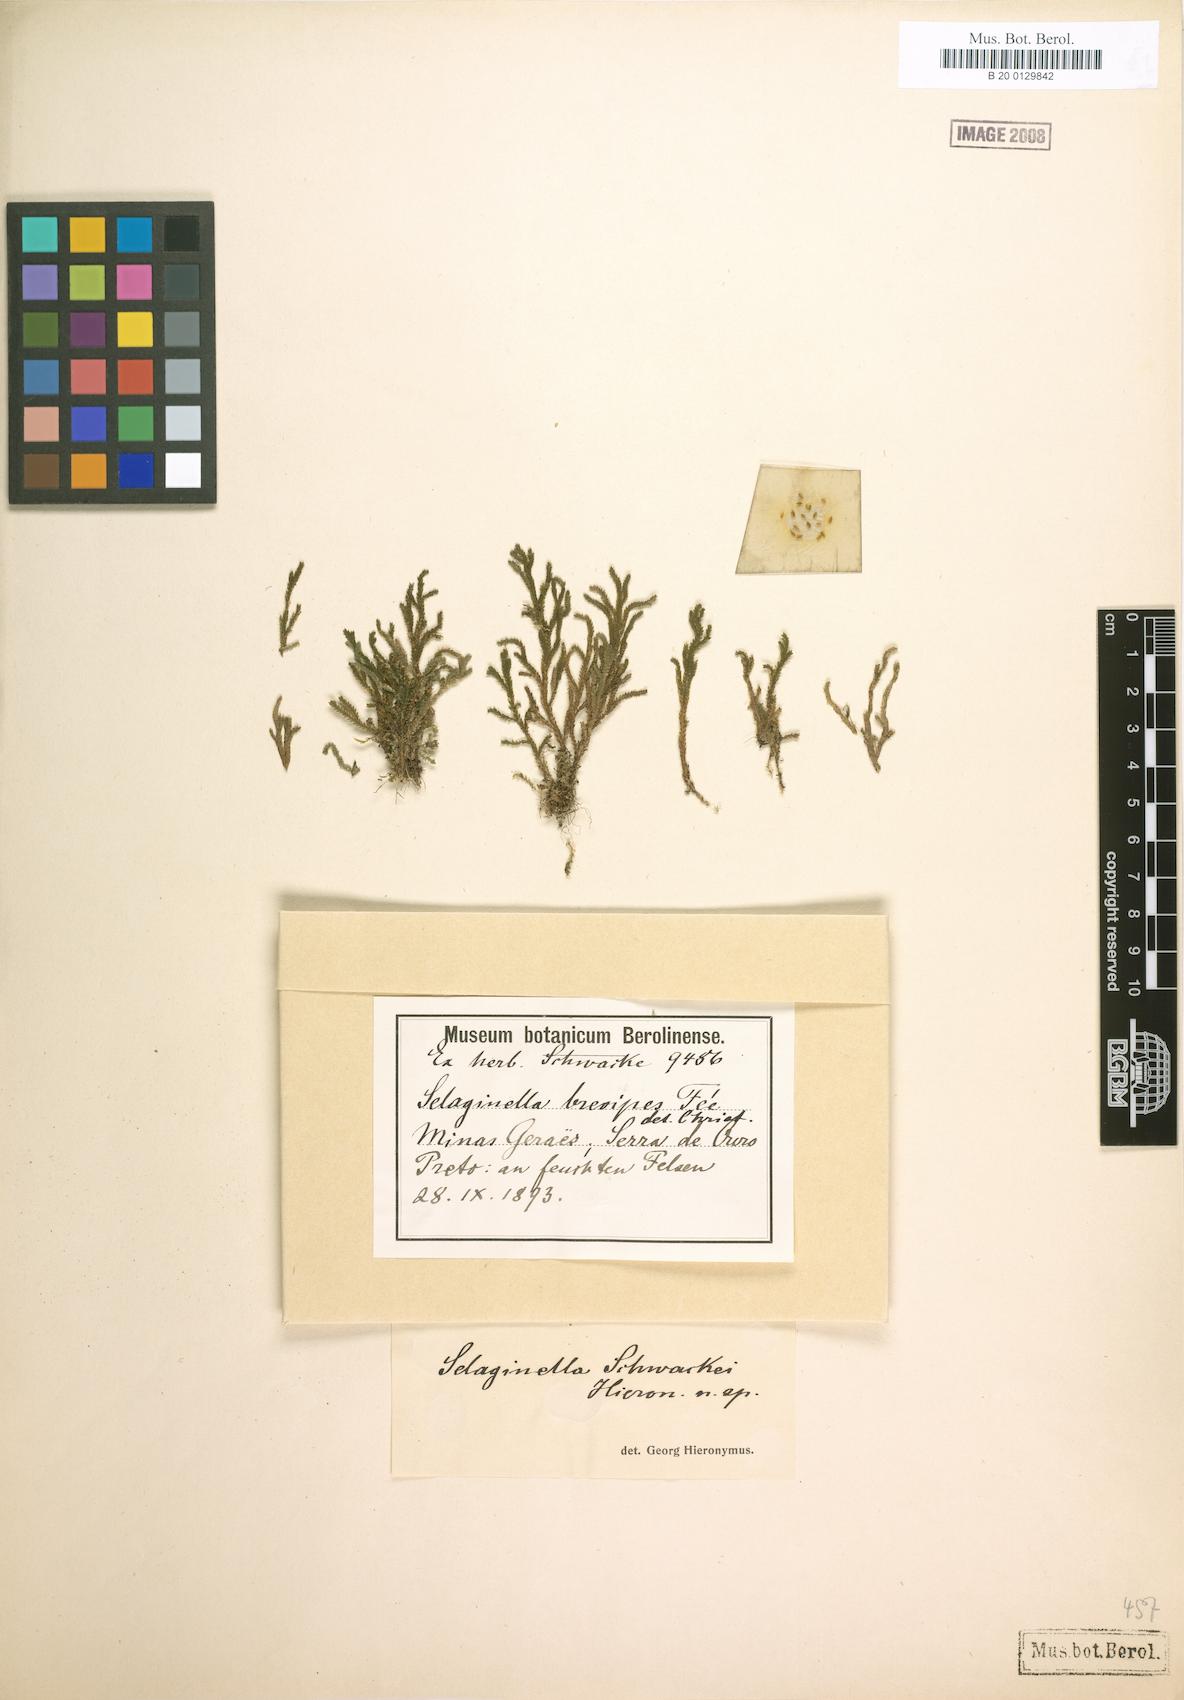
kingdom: Plantae
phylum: Tracheophyta
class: Lycopodiopsida
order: Selaginellales
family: Selaginellaceae
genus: Selaginella
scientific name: Selaginella erectifolia
